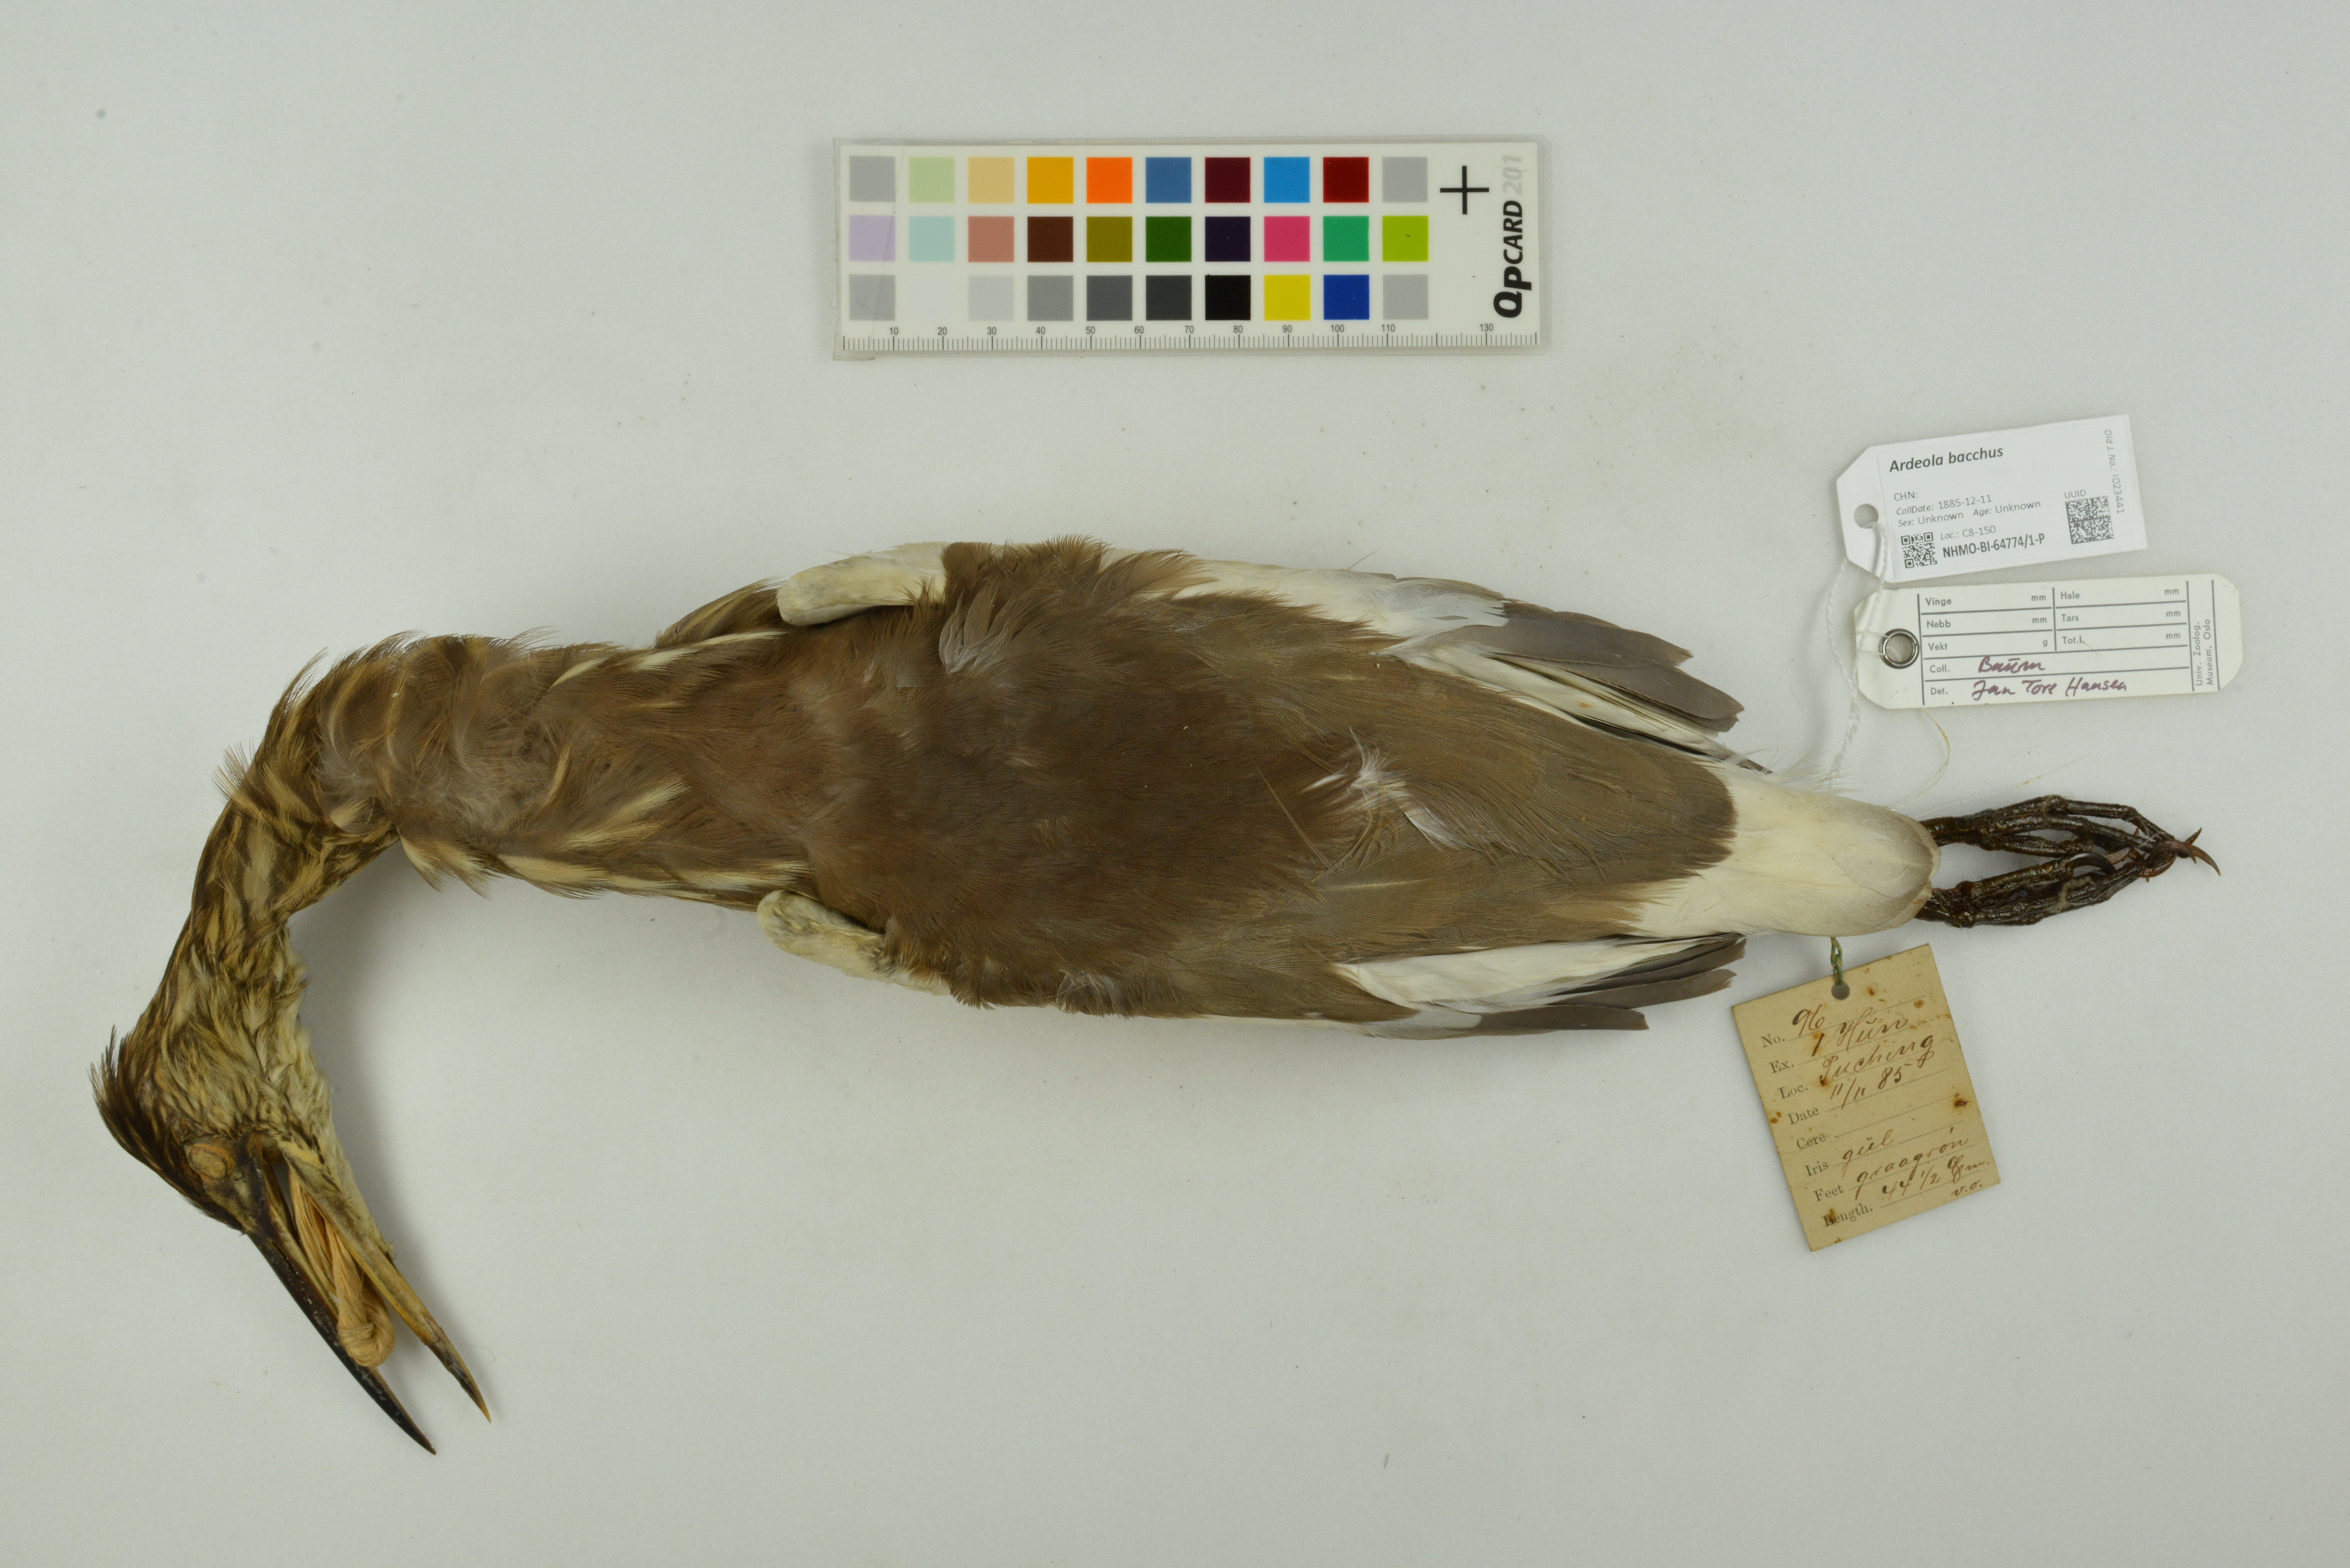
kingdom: Animalia
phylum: Chordata
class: Aves
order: Pelecaniformes
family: Ardeidae
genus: Ardeola
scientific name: Ardeola bacchus
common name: Chinese pond heron
